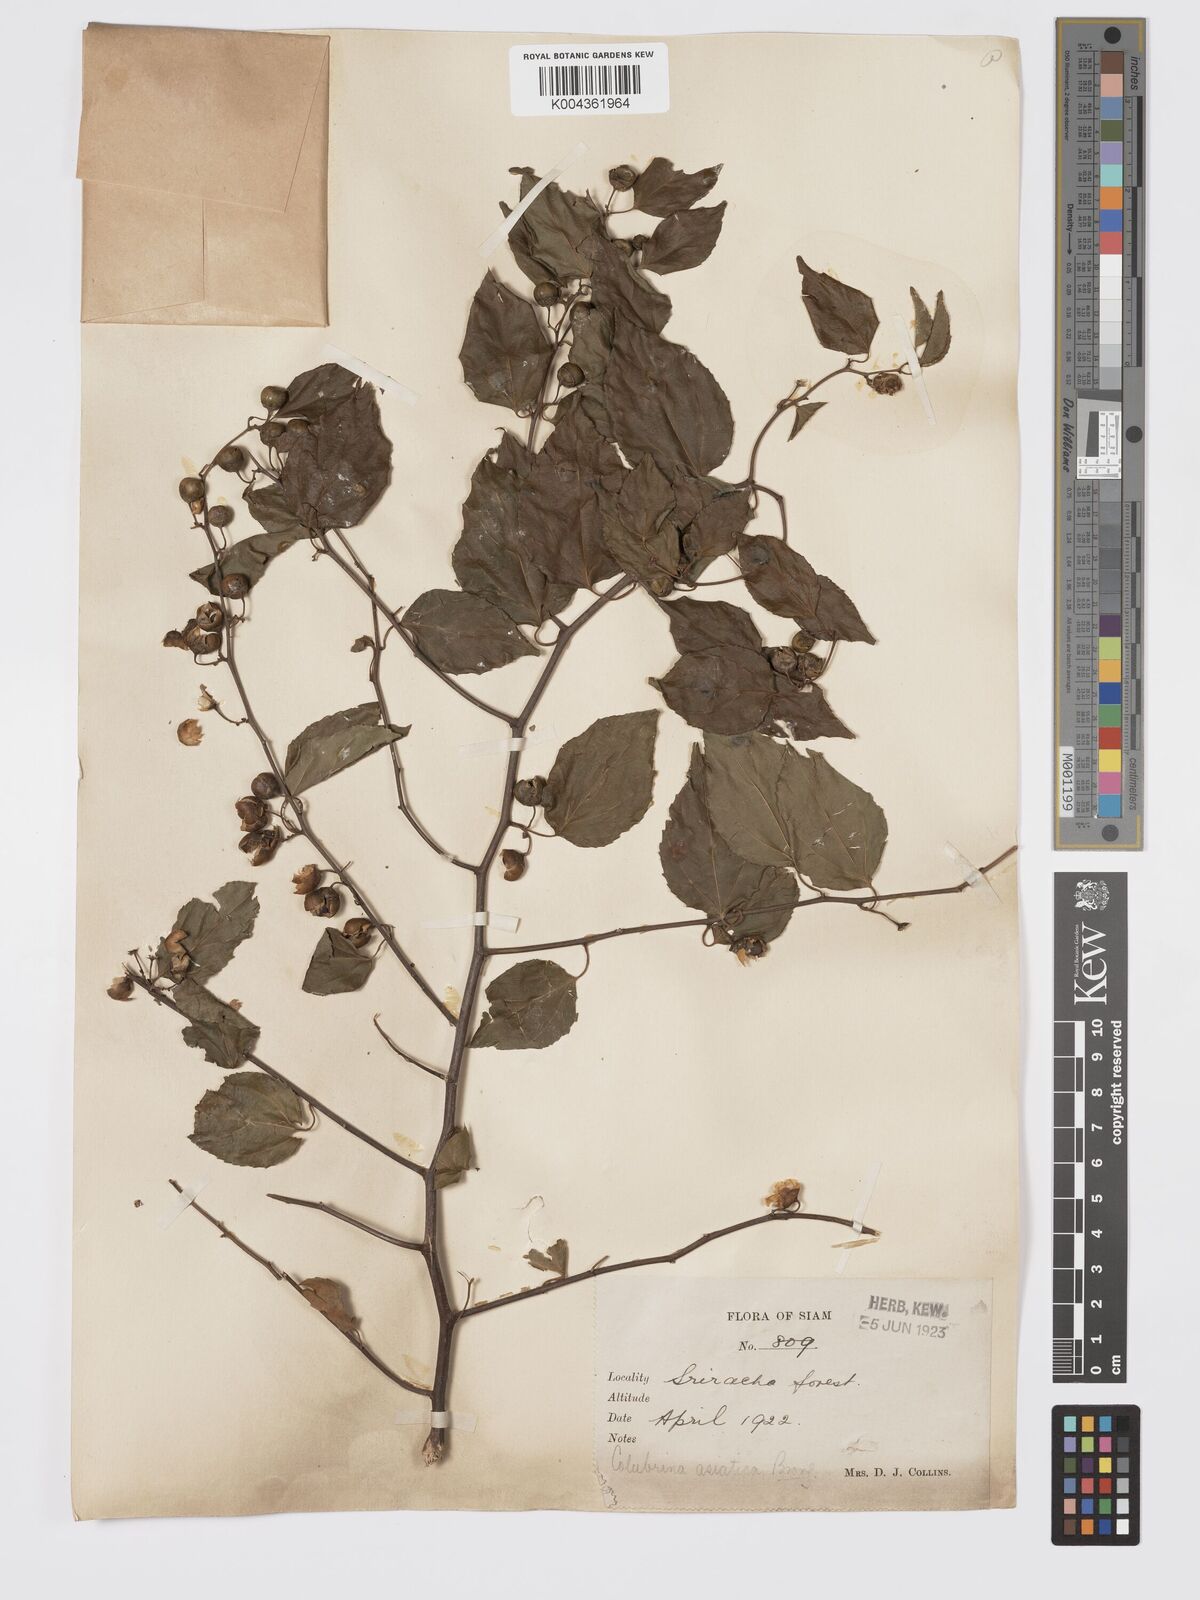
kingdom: Plantae
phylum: Tracheophyta
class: Magnoliopsida
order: Rosales
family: Rhamnaceae
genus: Colubrina
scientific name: Colubrina asiatica
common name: Asian nakedwood
